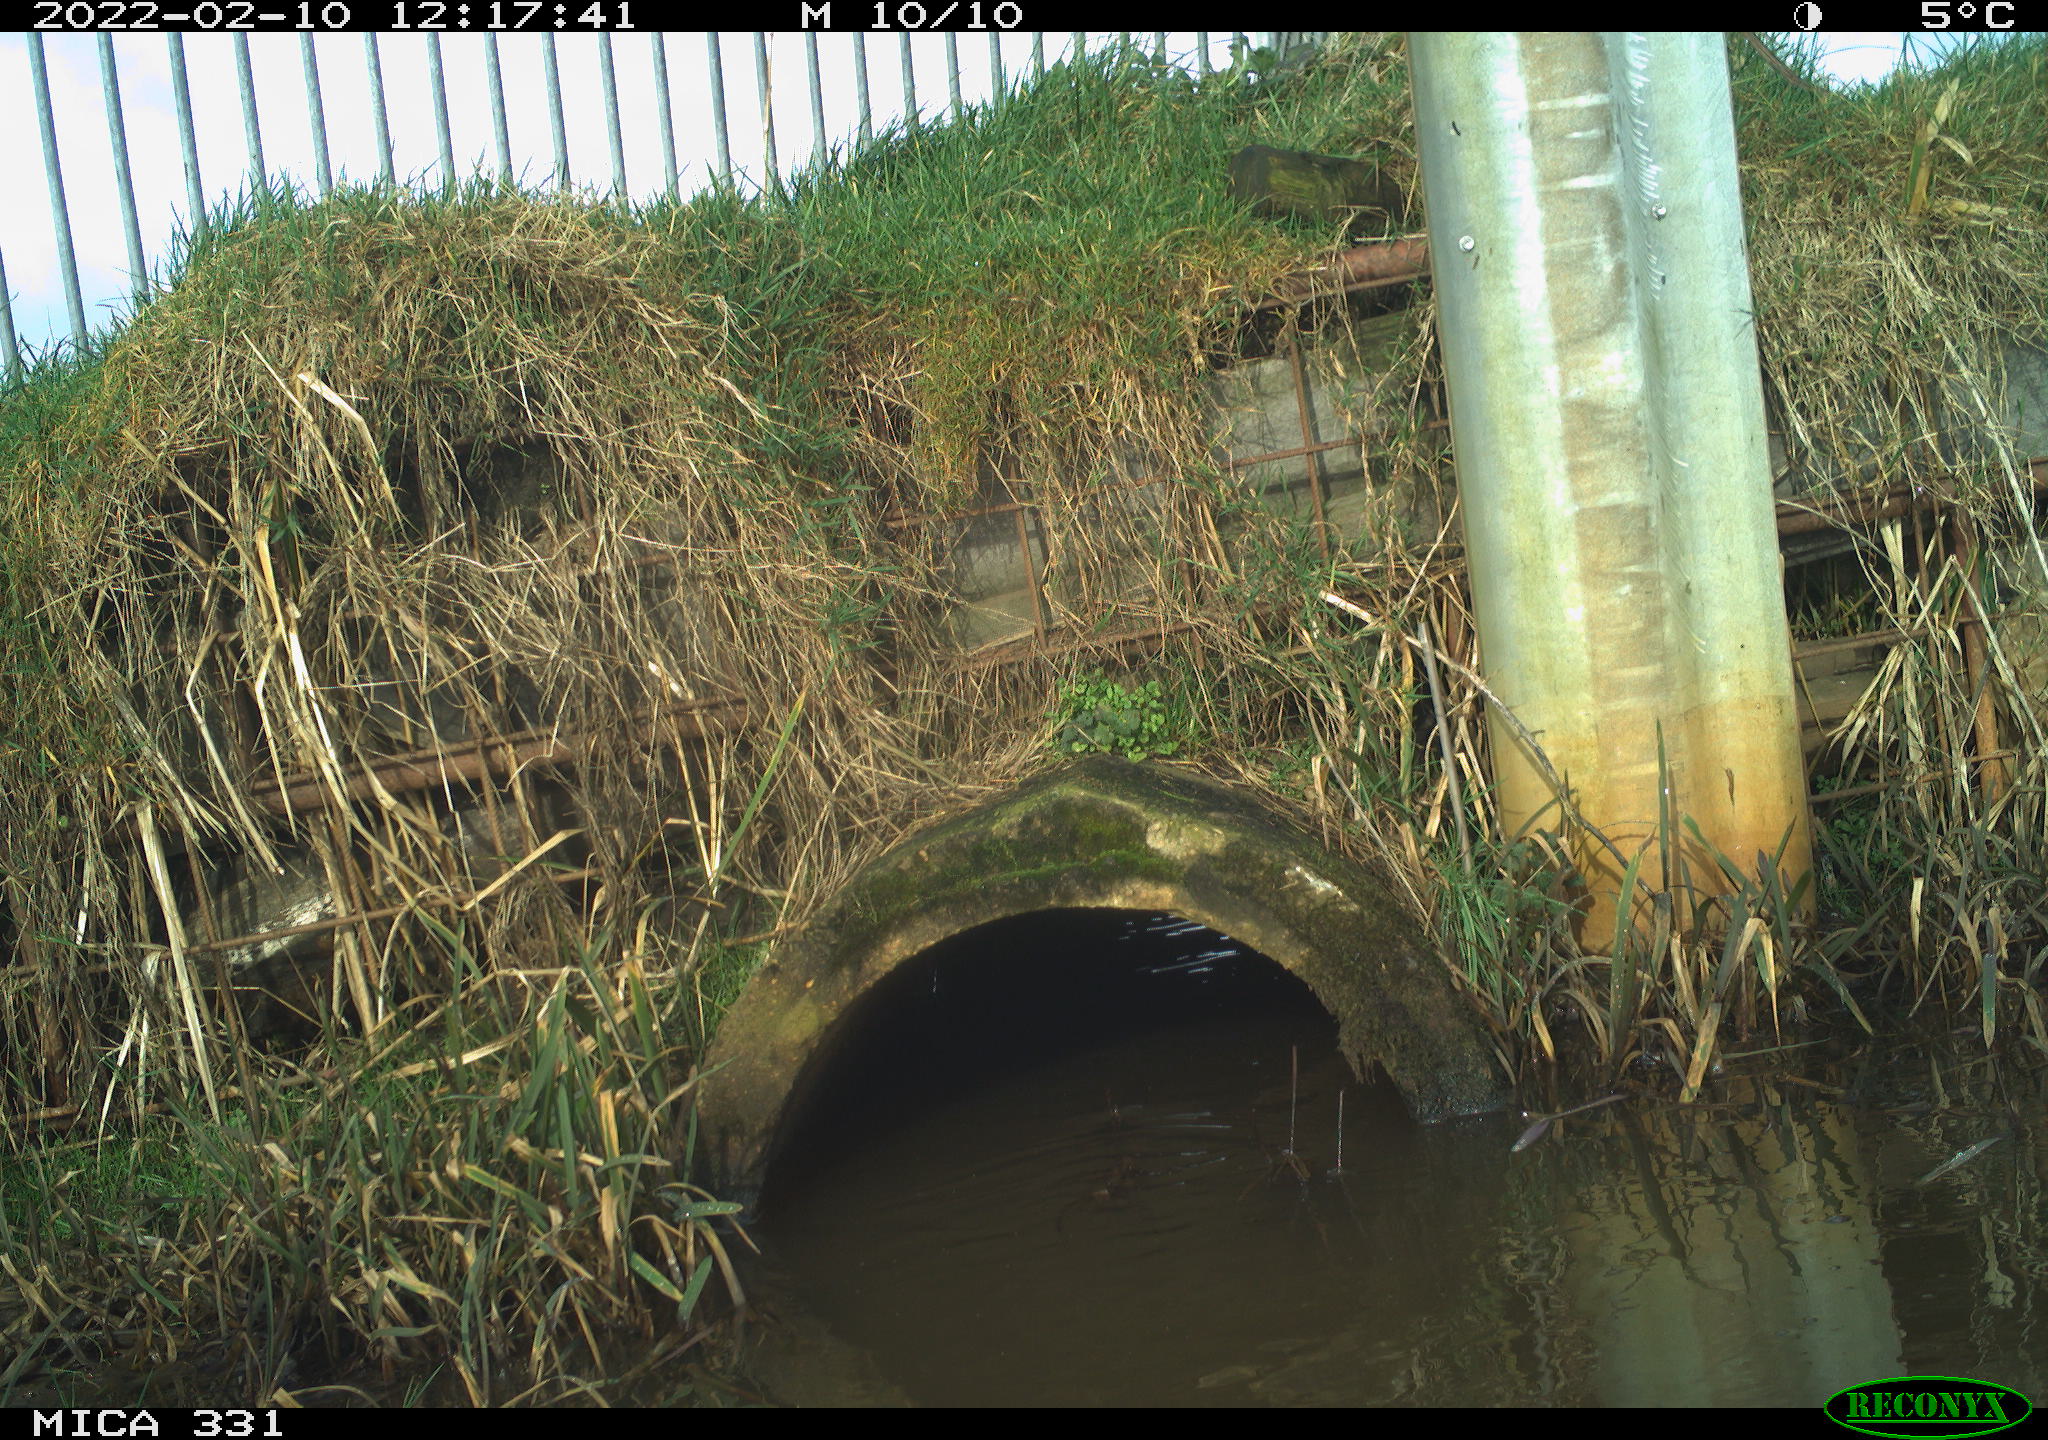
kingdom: Animalia
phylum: Chordata
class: Aves
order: Pelecaniformes
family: Ardeidae
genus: Ardea
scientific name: Ardea alba
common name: Great egret
